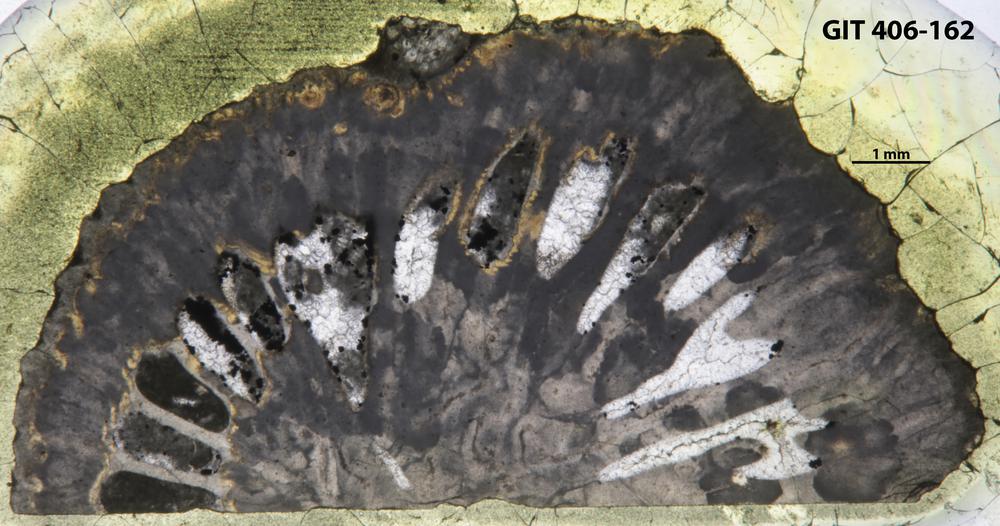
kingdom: Animalia
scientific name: Animalia
